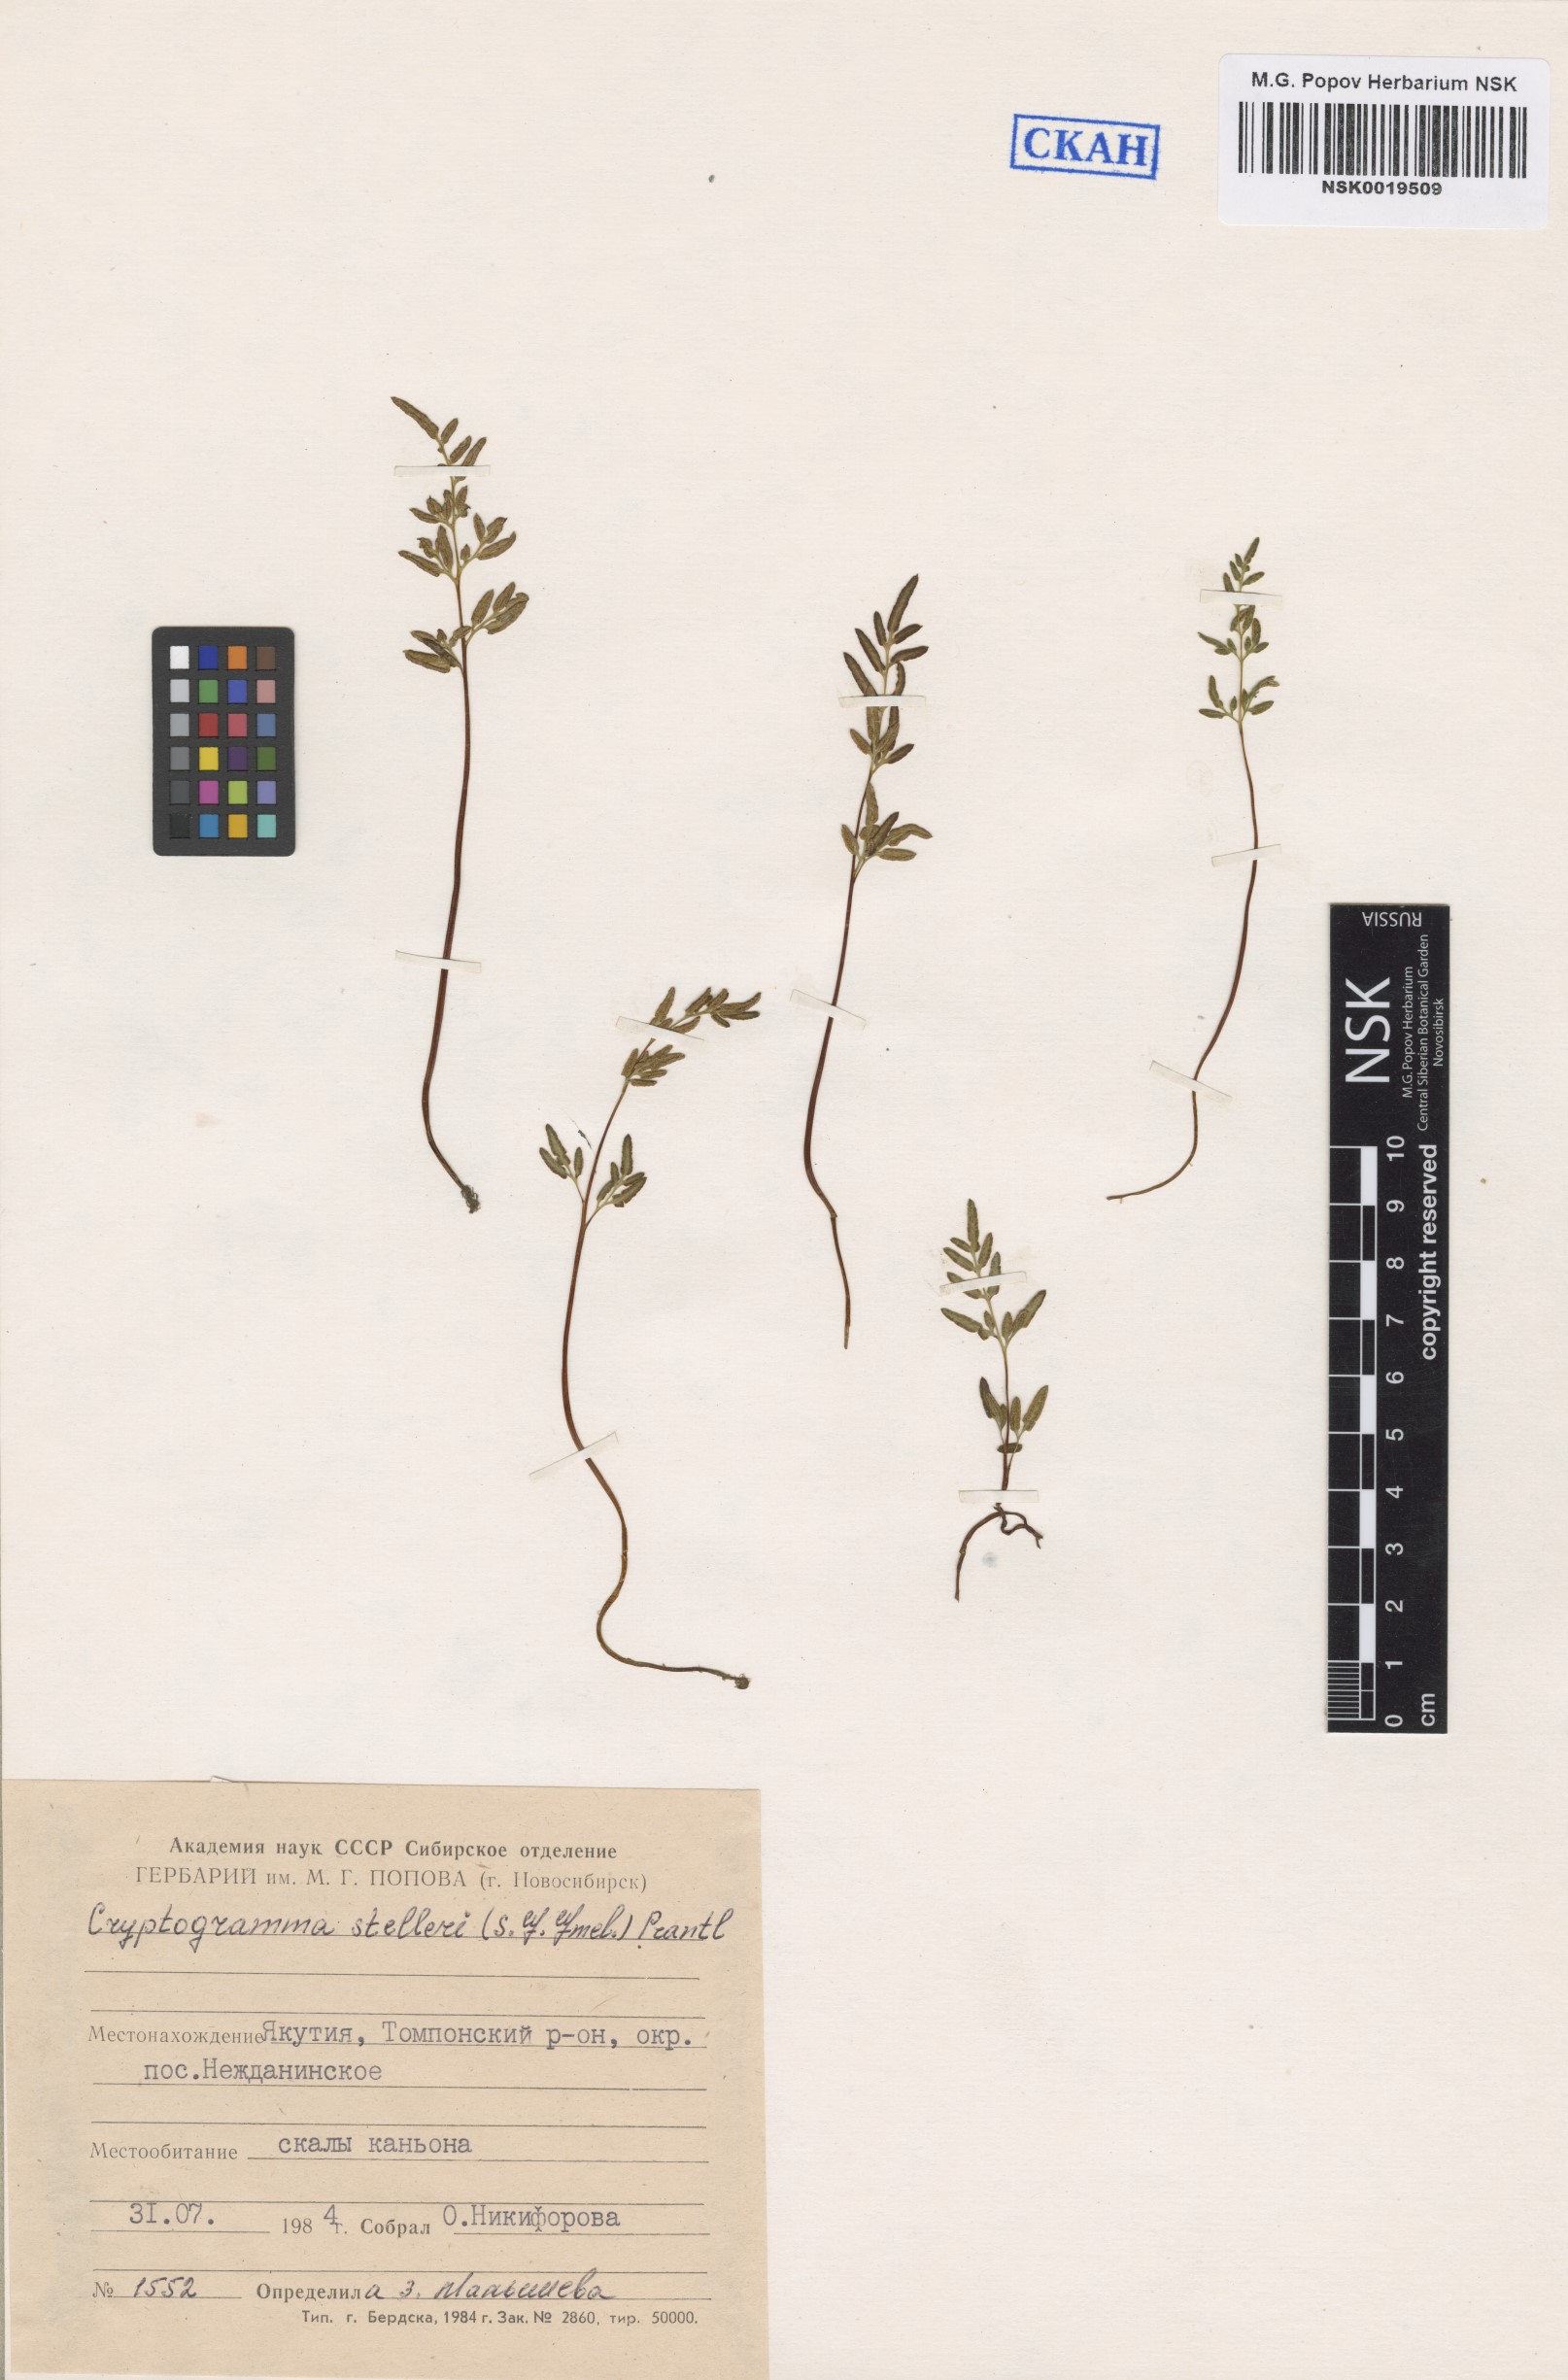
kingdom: Plantae
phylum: Tracheophyta
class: Polypodiopsida
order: Polypodiales
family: Pteridaceae
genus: Cryptogramma
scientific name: Cryptogramma stelleri
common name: Cliff-brake
